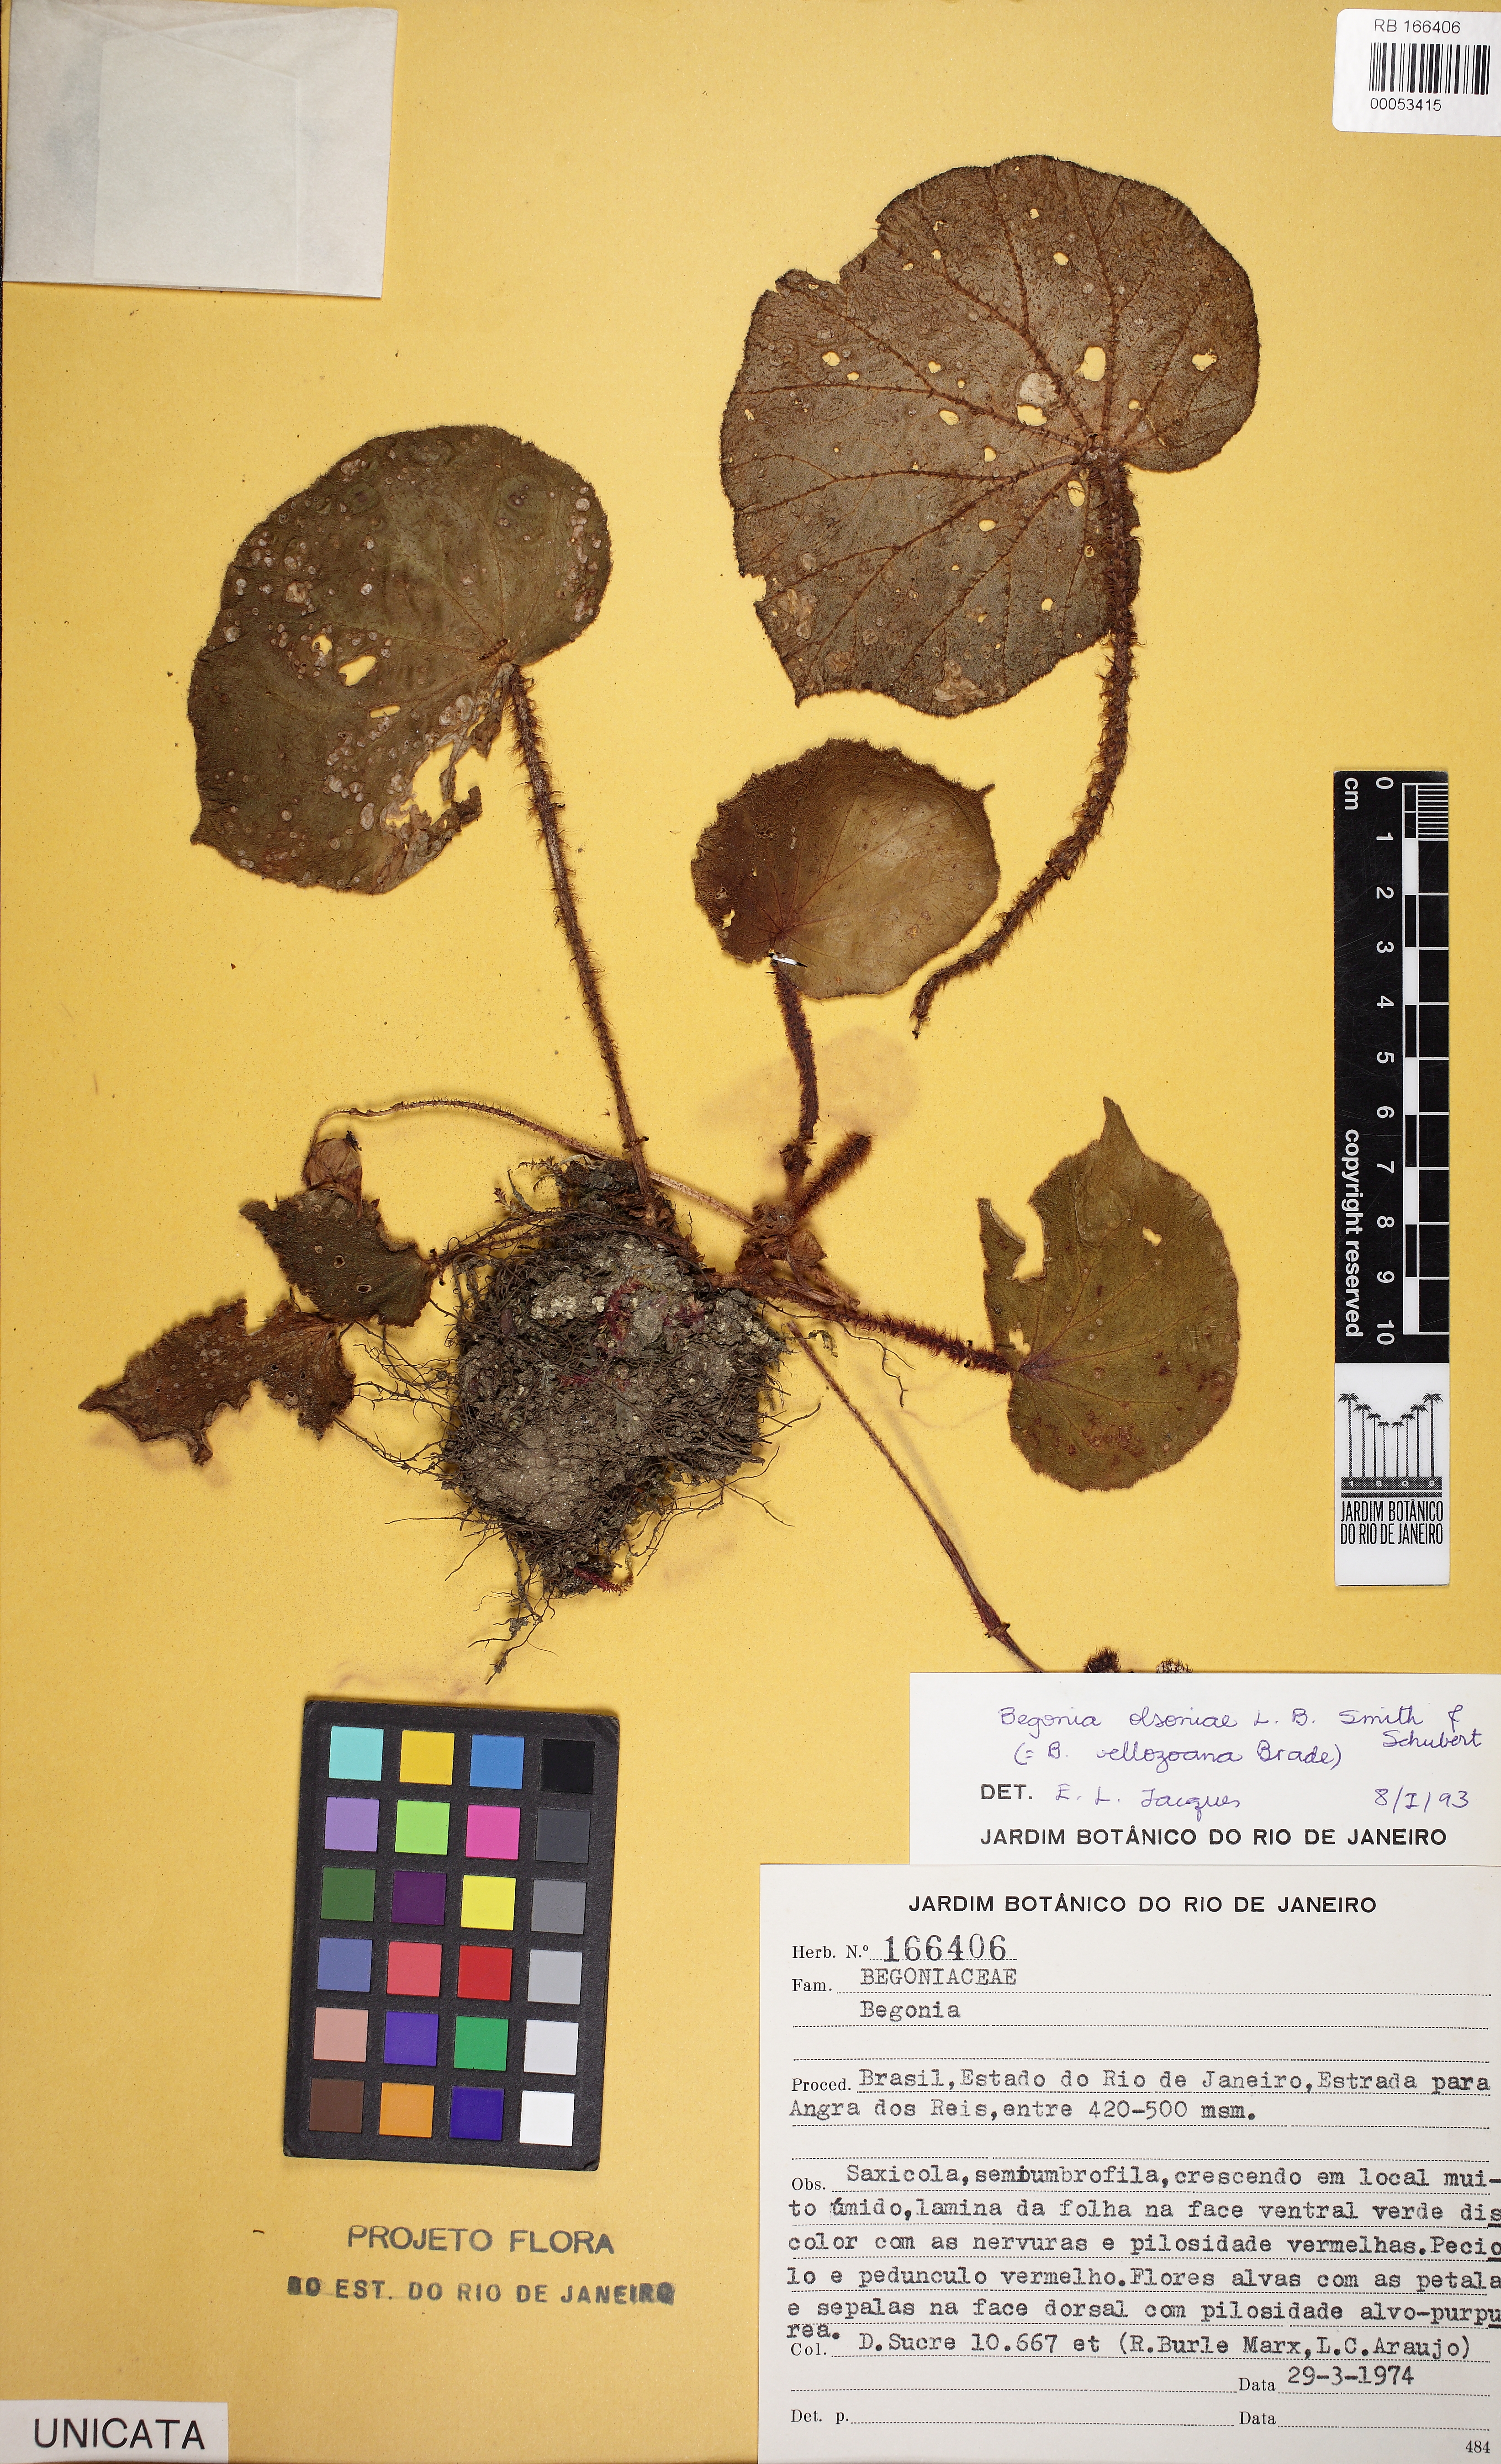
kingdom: Plantae
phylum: Tracheophyta
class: Magnoliopsida
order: Cucurbitales
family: Begoniaceae
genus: Begonia
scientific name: Begonia olsoniae
